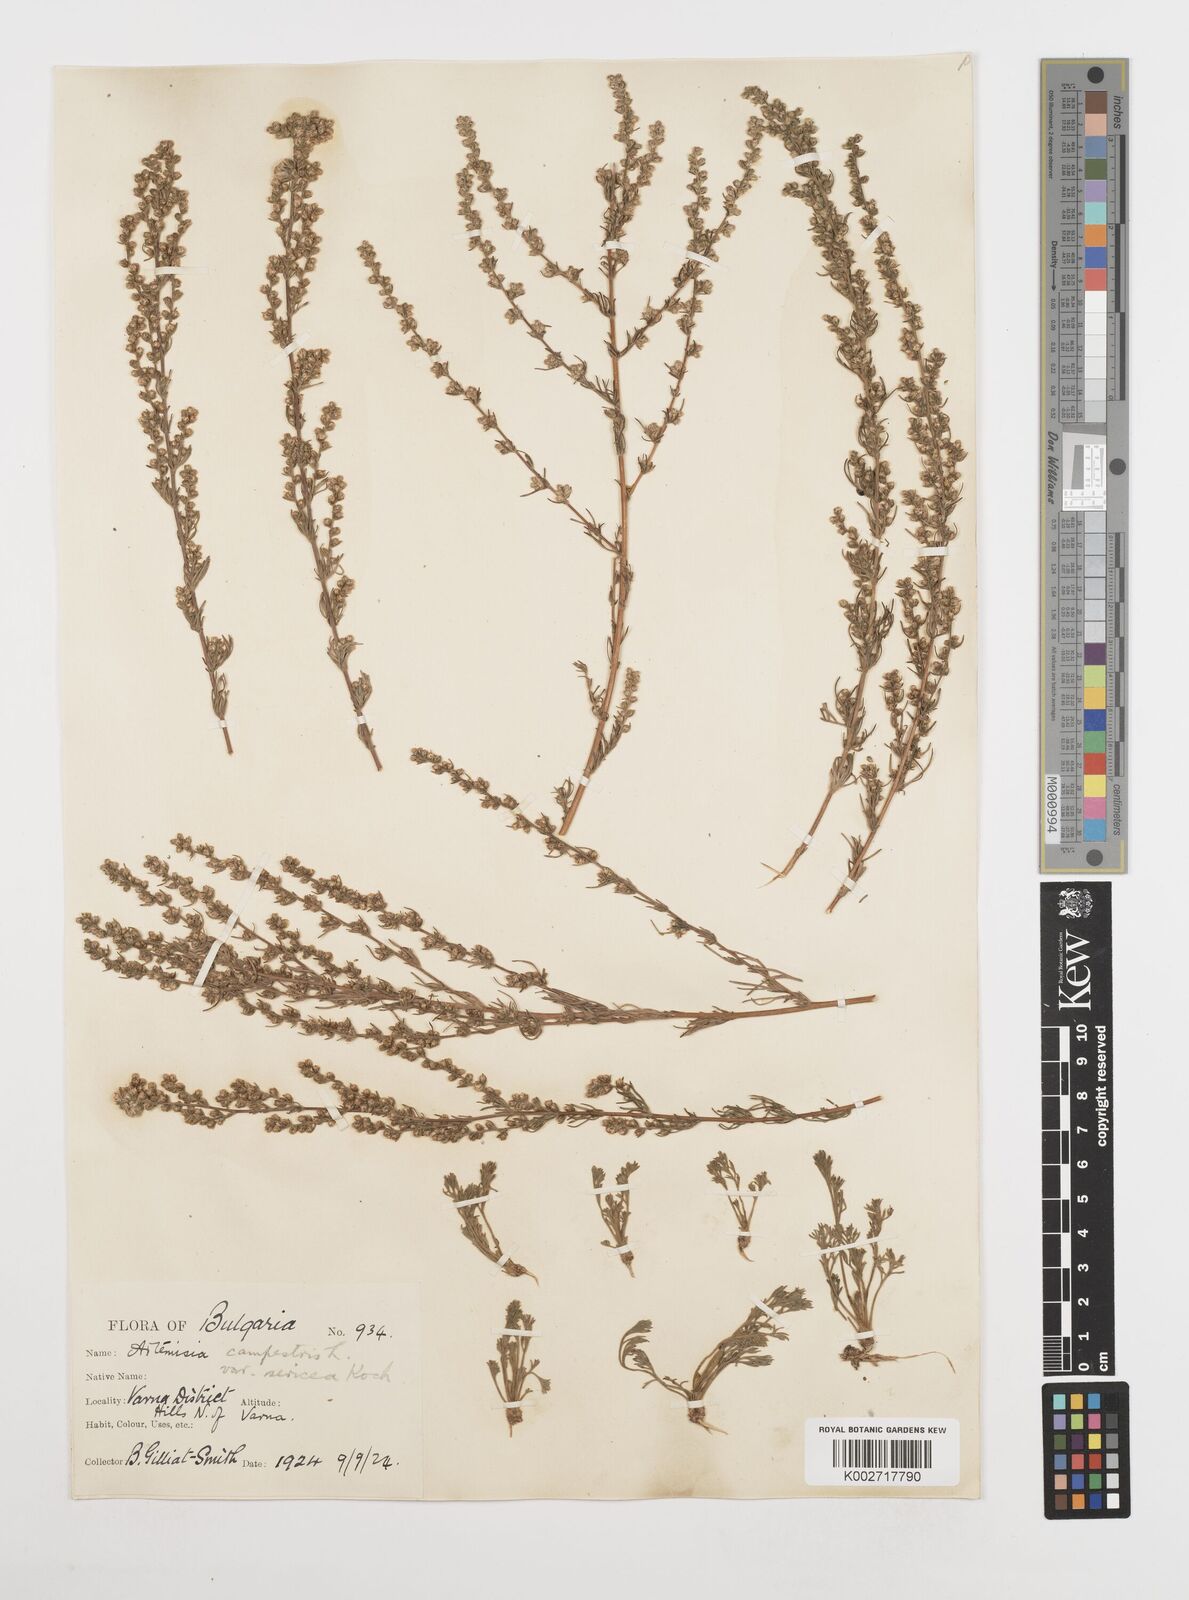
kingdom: Plantae
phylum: Tracheophyta
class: Magnoliopsida
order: Asterales
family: Asteraceae
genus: Artemisia
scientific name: Artemisia
